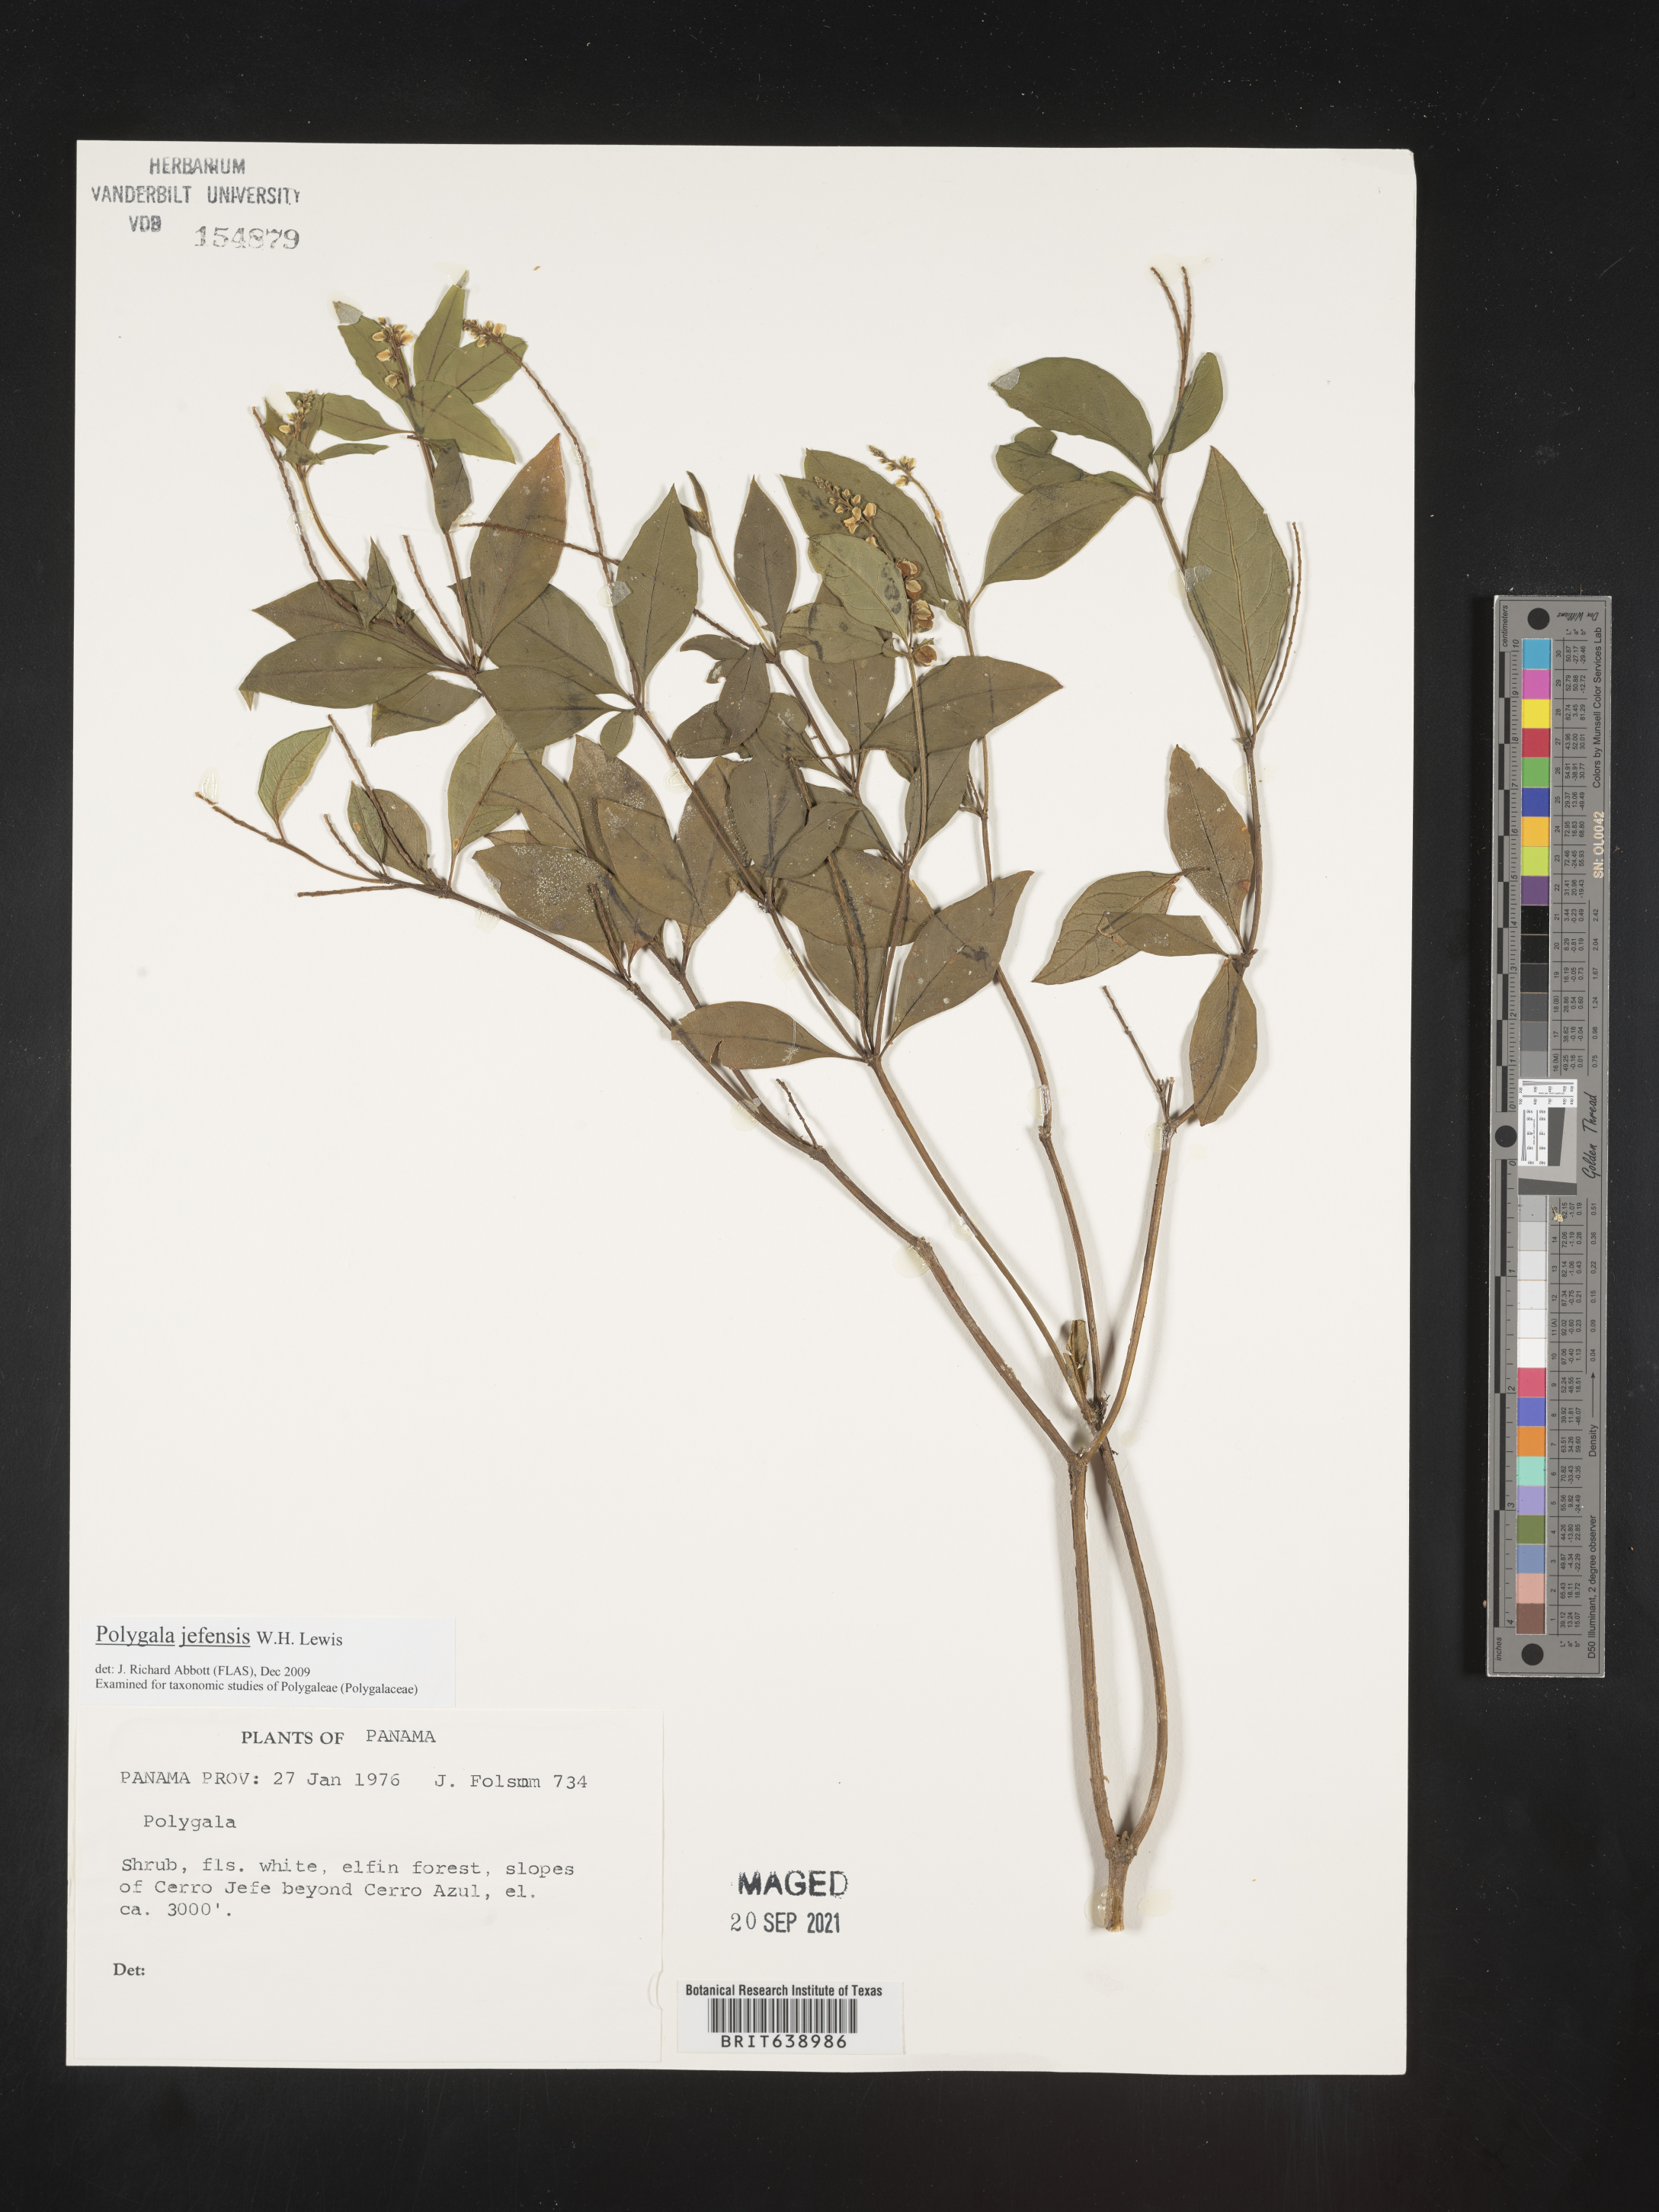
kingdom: Plantae
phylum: Tracheophyta
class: Magnoliopsida
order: Fabales
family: Polygalaceae
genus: Polygala
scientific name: Polygala
